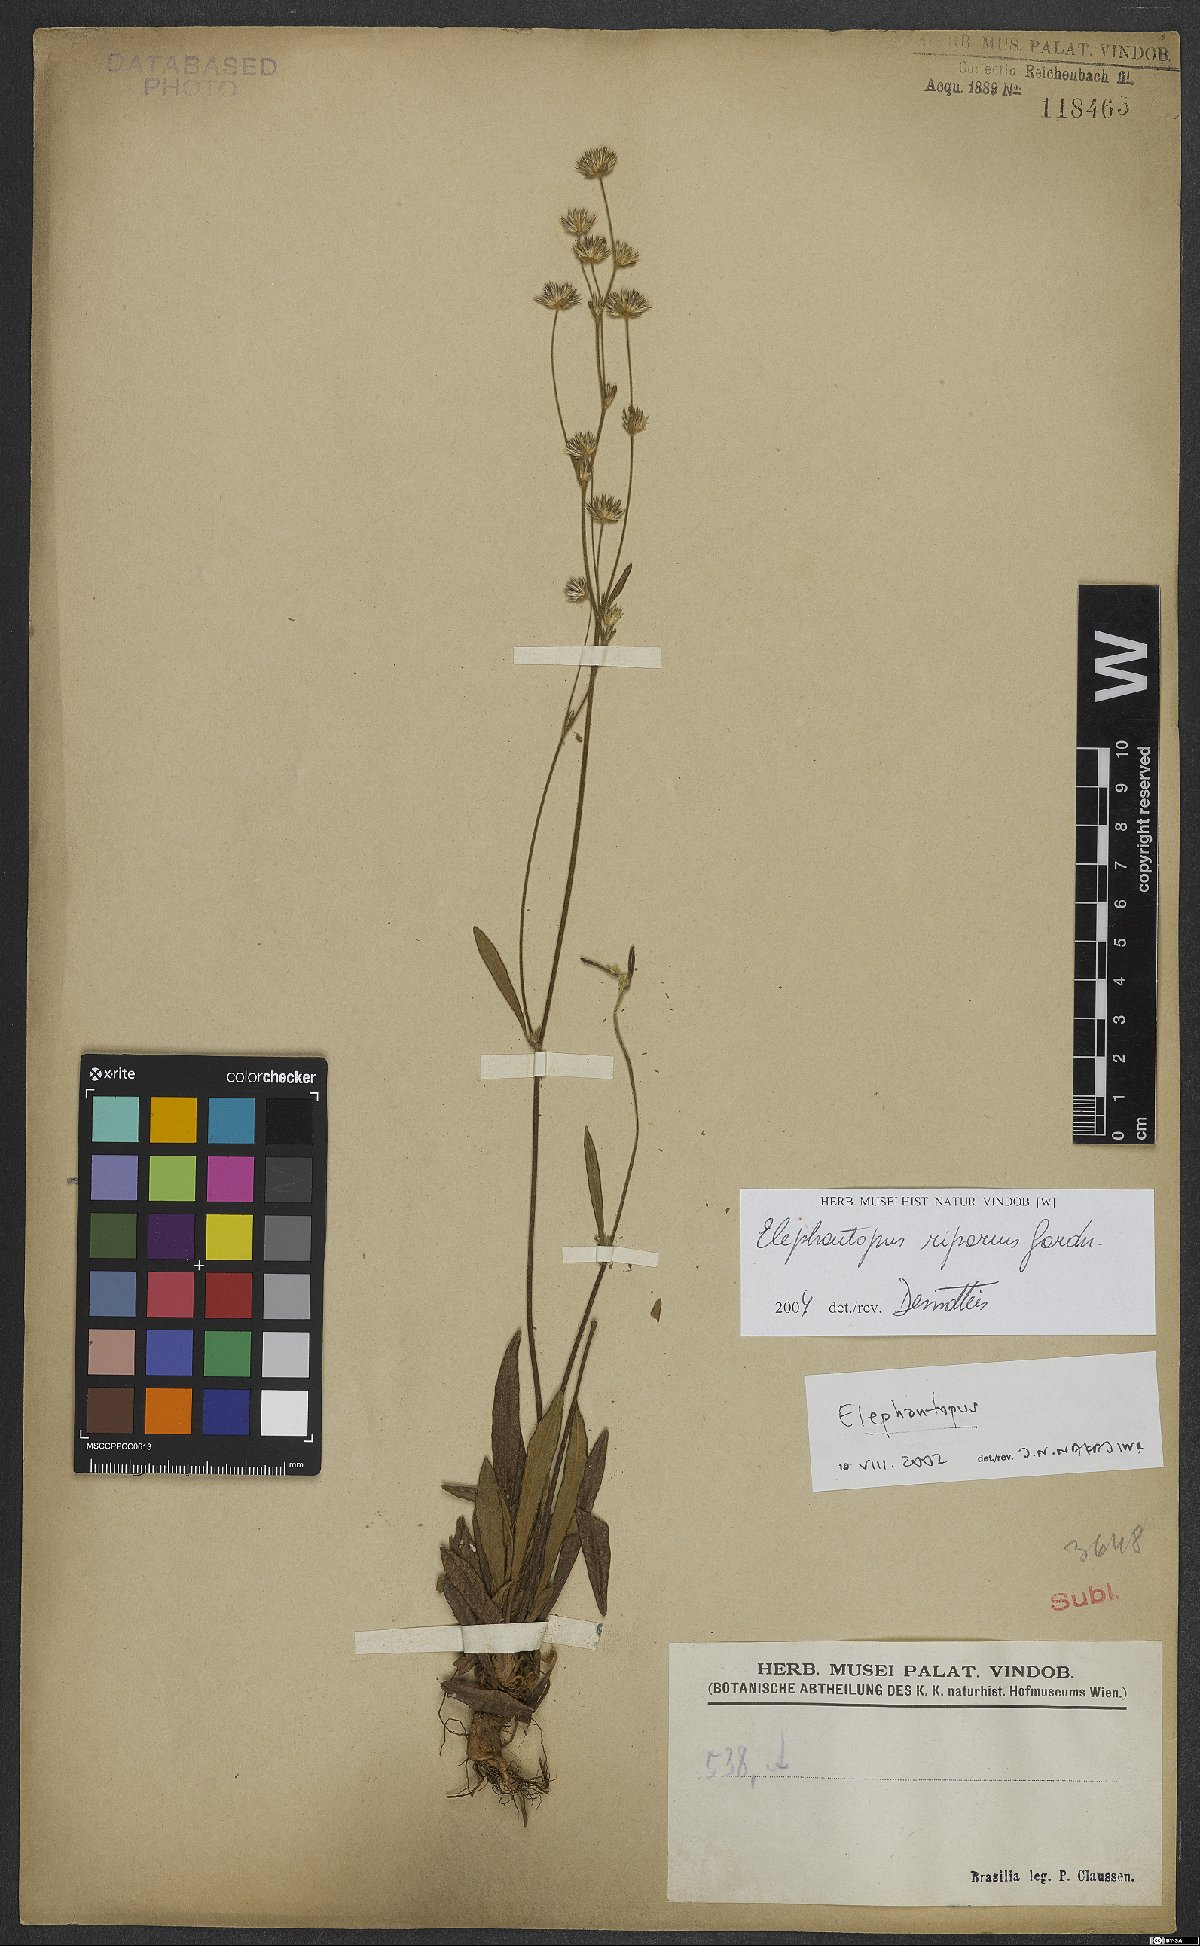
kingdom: Plantae
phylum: Tracheophyta
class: Magnoliopsida
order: Asterales
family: Asteraceae
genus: Elephantopus
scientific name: Elephantopus riparius
